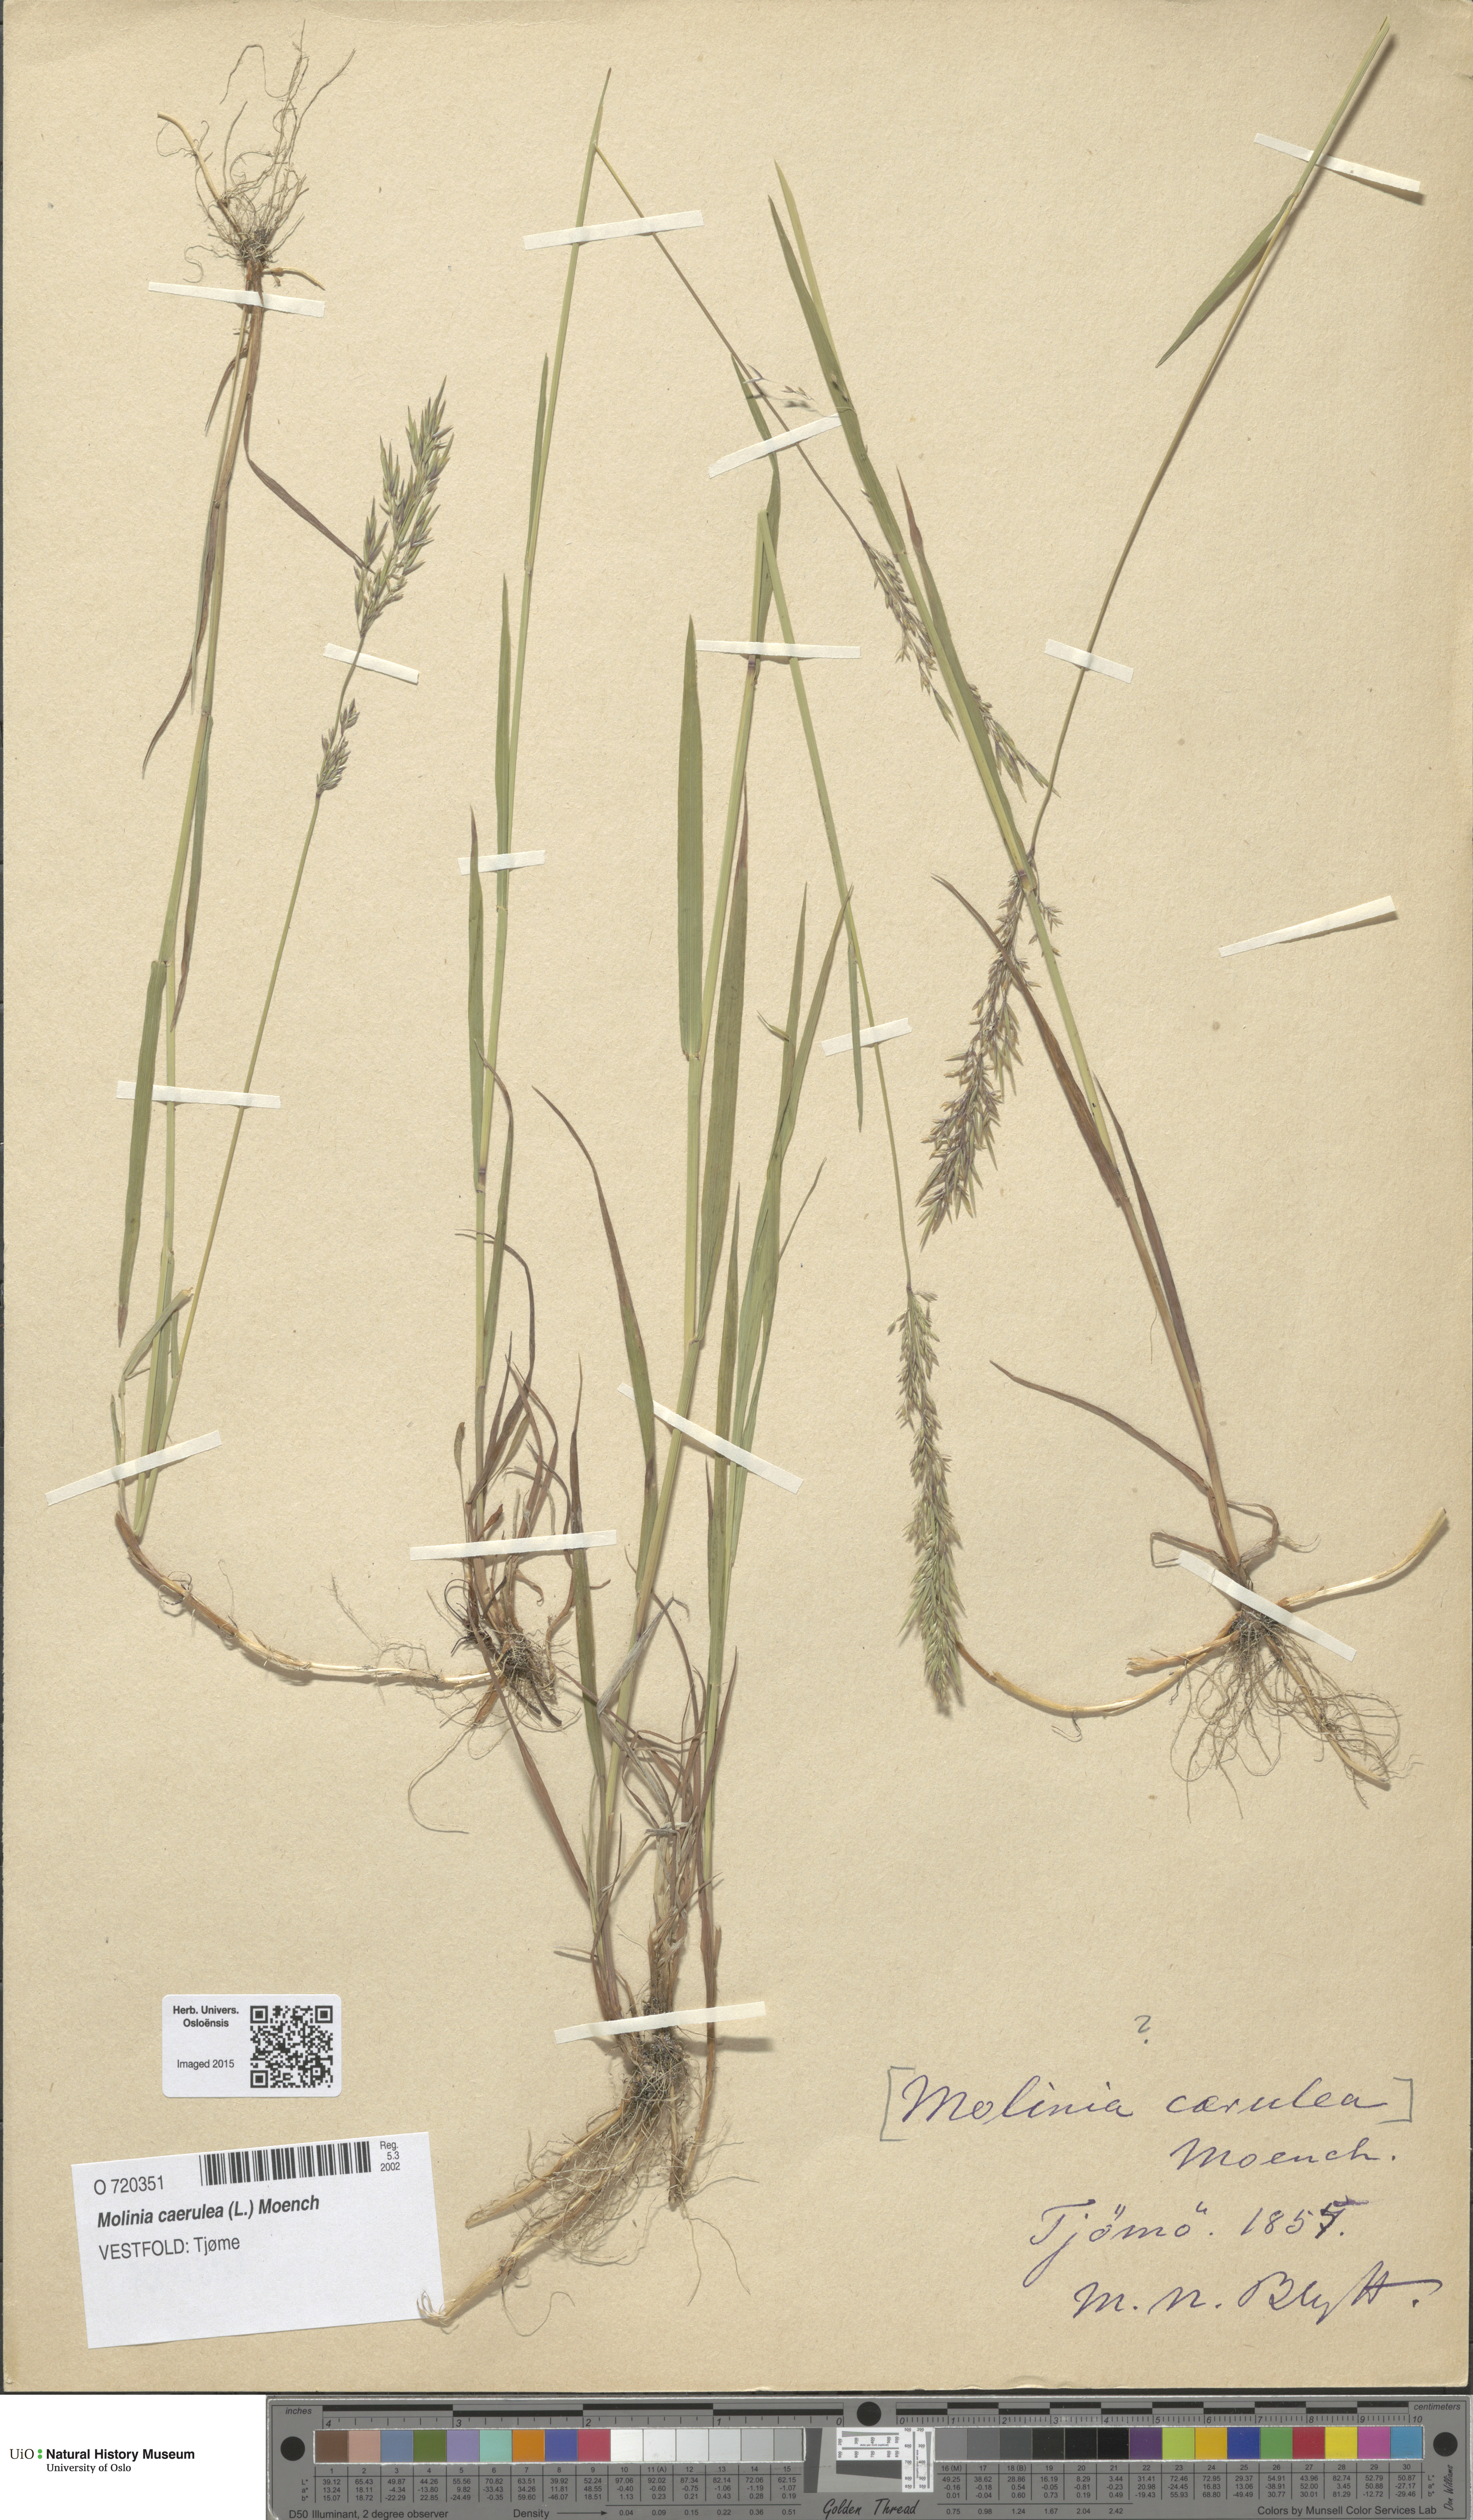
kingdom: Plantae
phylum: Tracheophyta
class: Liliopsida
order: Poales
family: Poaceae
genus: Molinia
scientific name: Molinia caerulea
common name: Purple moor-grass
